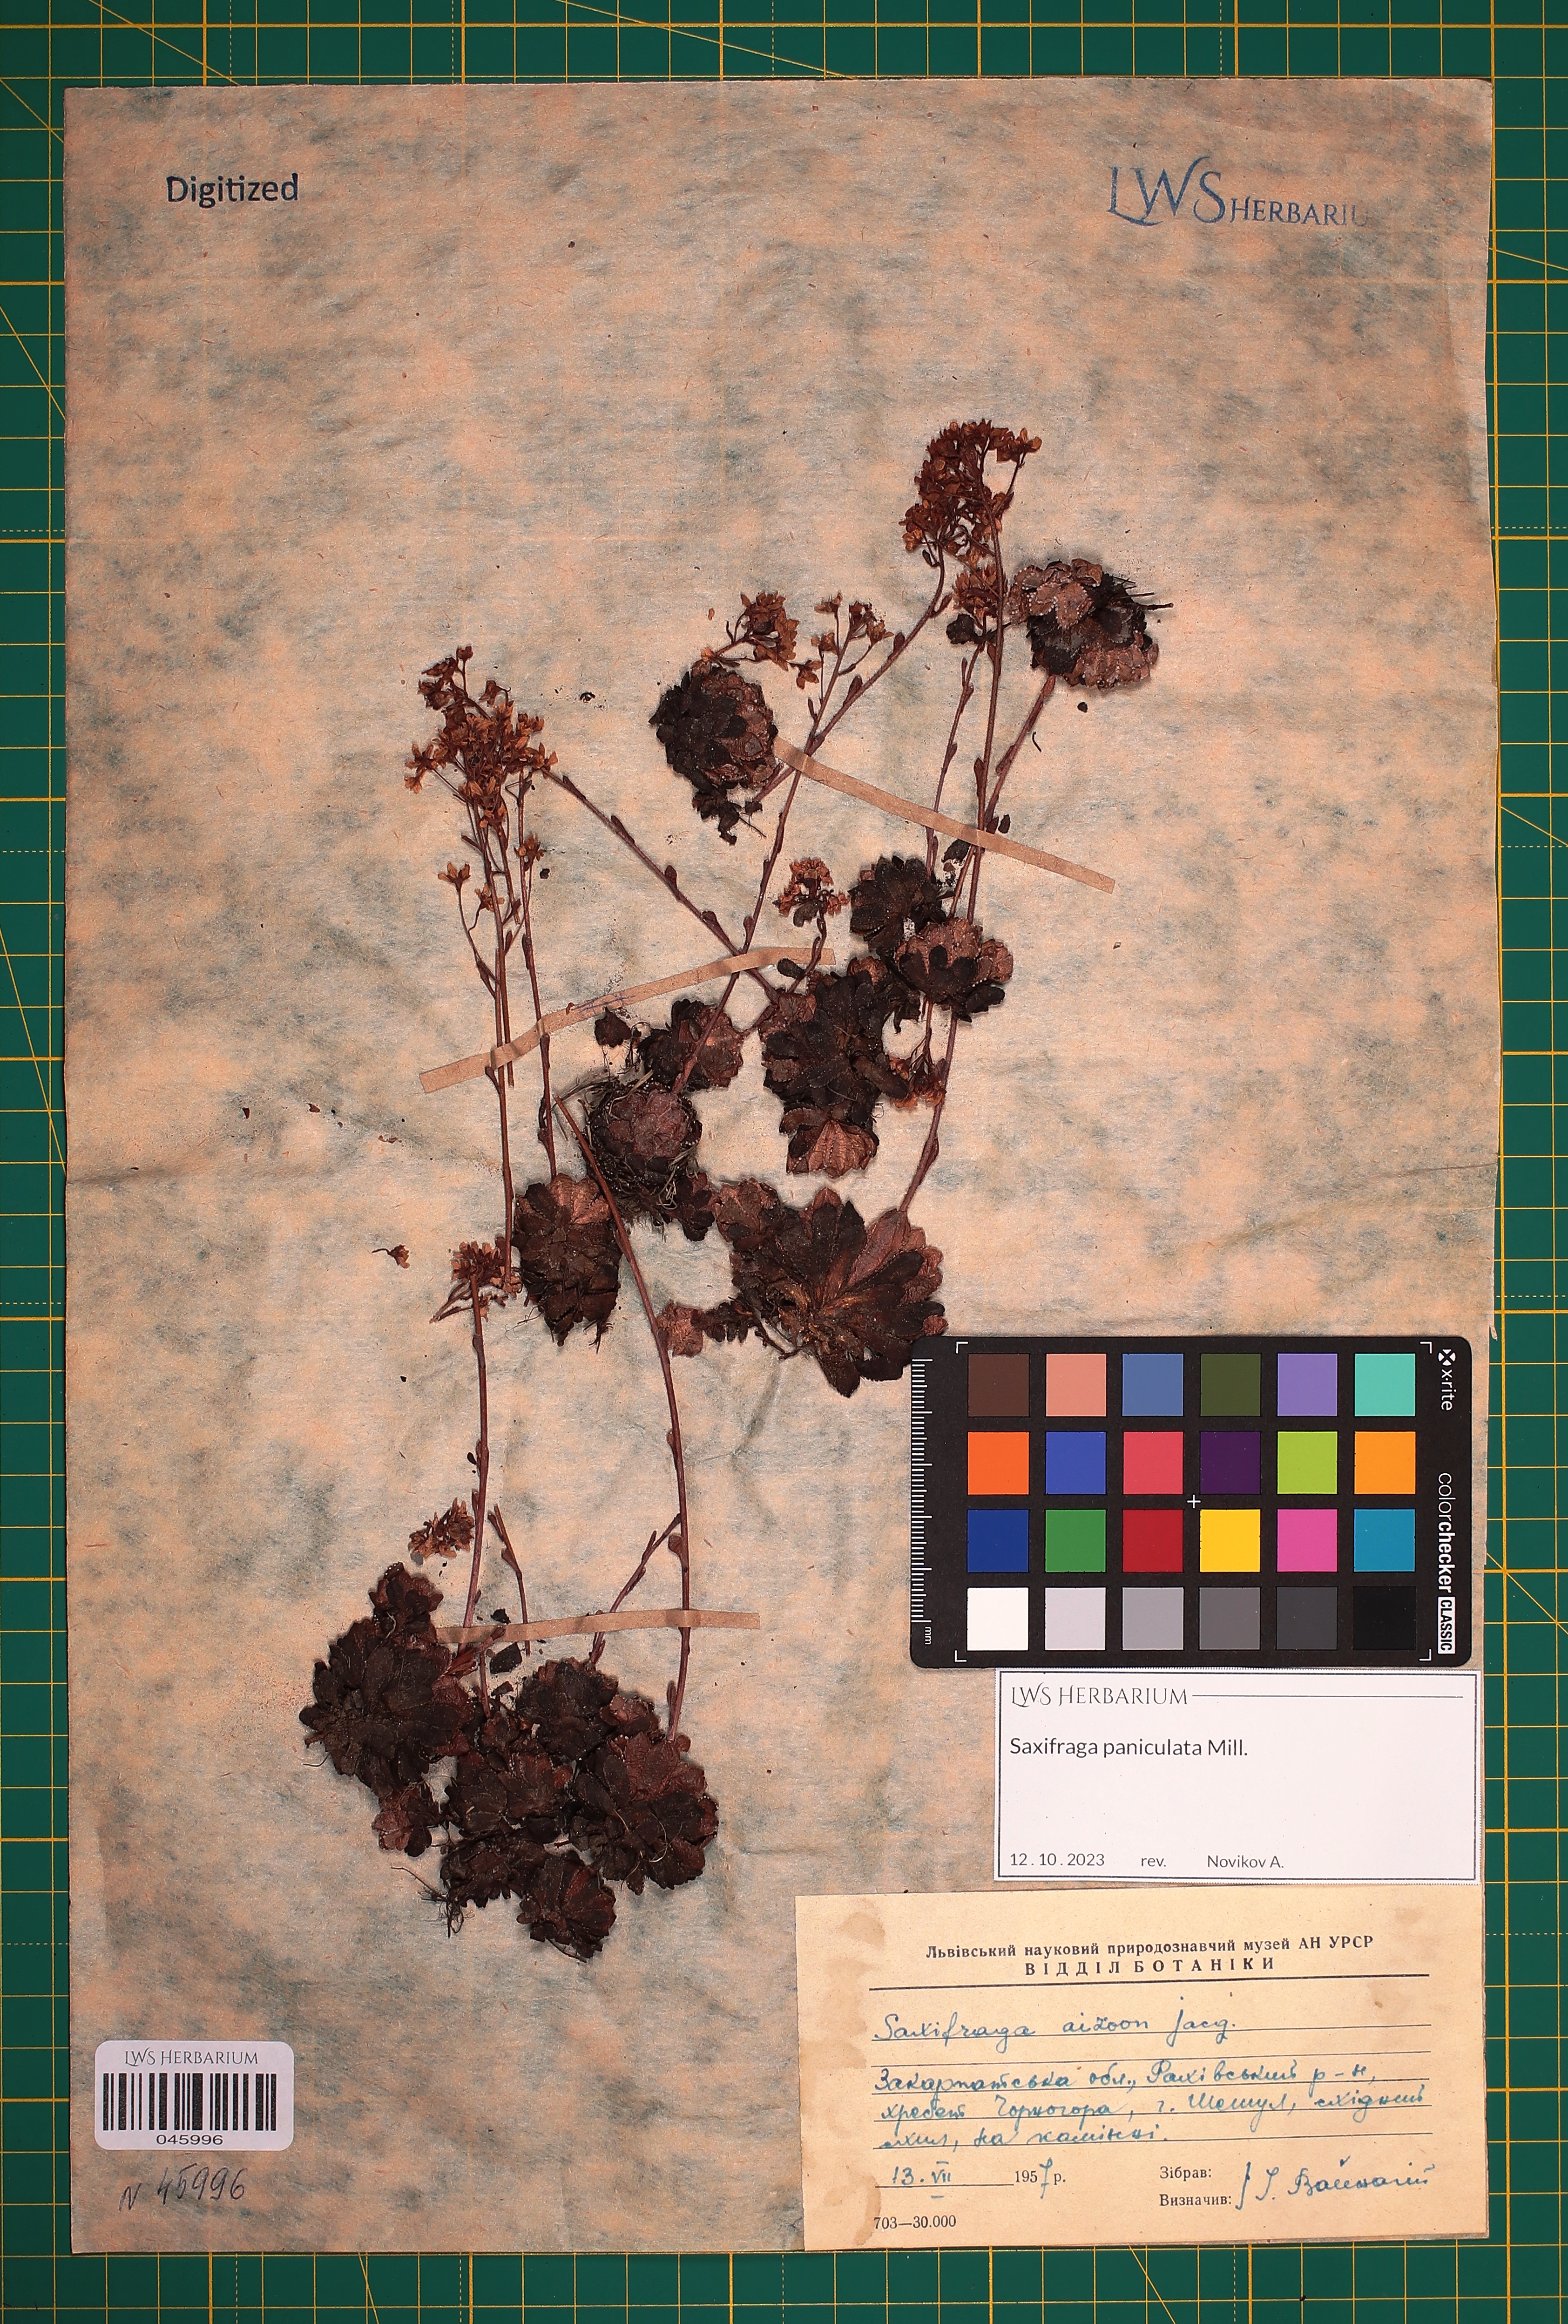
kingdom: Plantae
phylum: Tracheophyta
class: Magnoliopsida
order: Saxifragales
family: Saxifragaceae
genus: Saxifraga
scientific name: Saxifraga paniculata
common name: Livelong saxifrage
